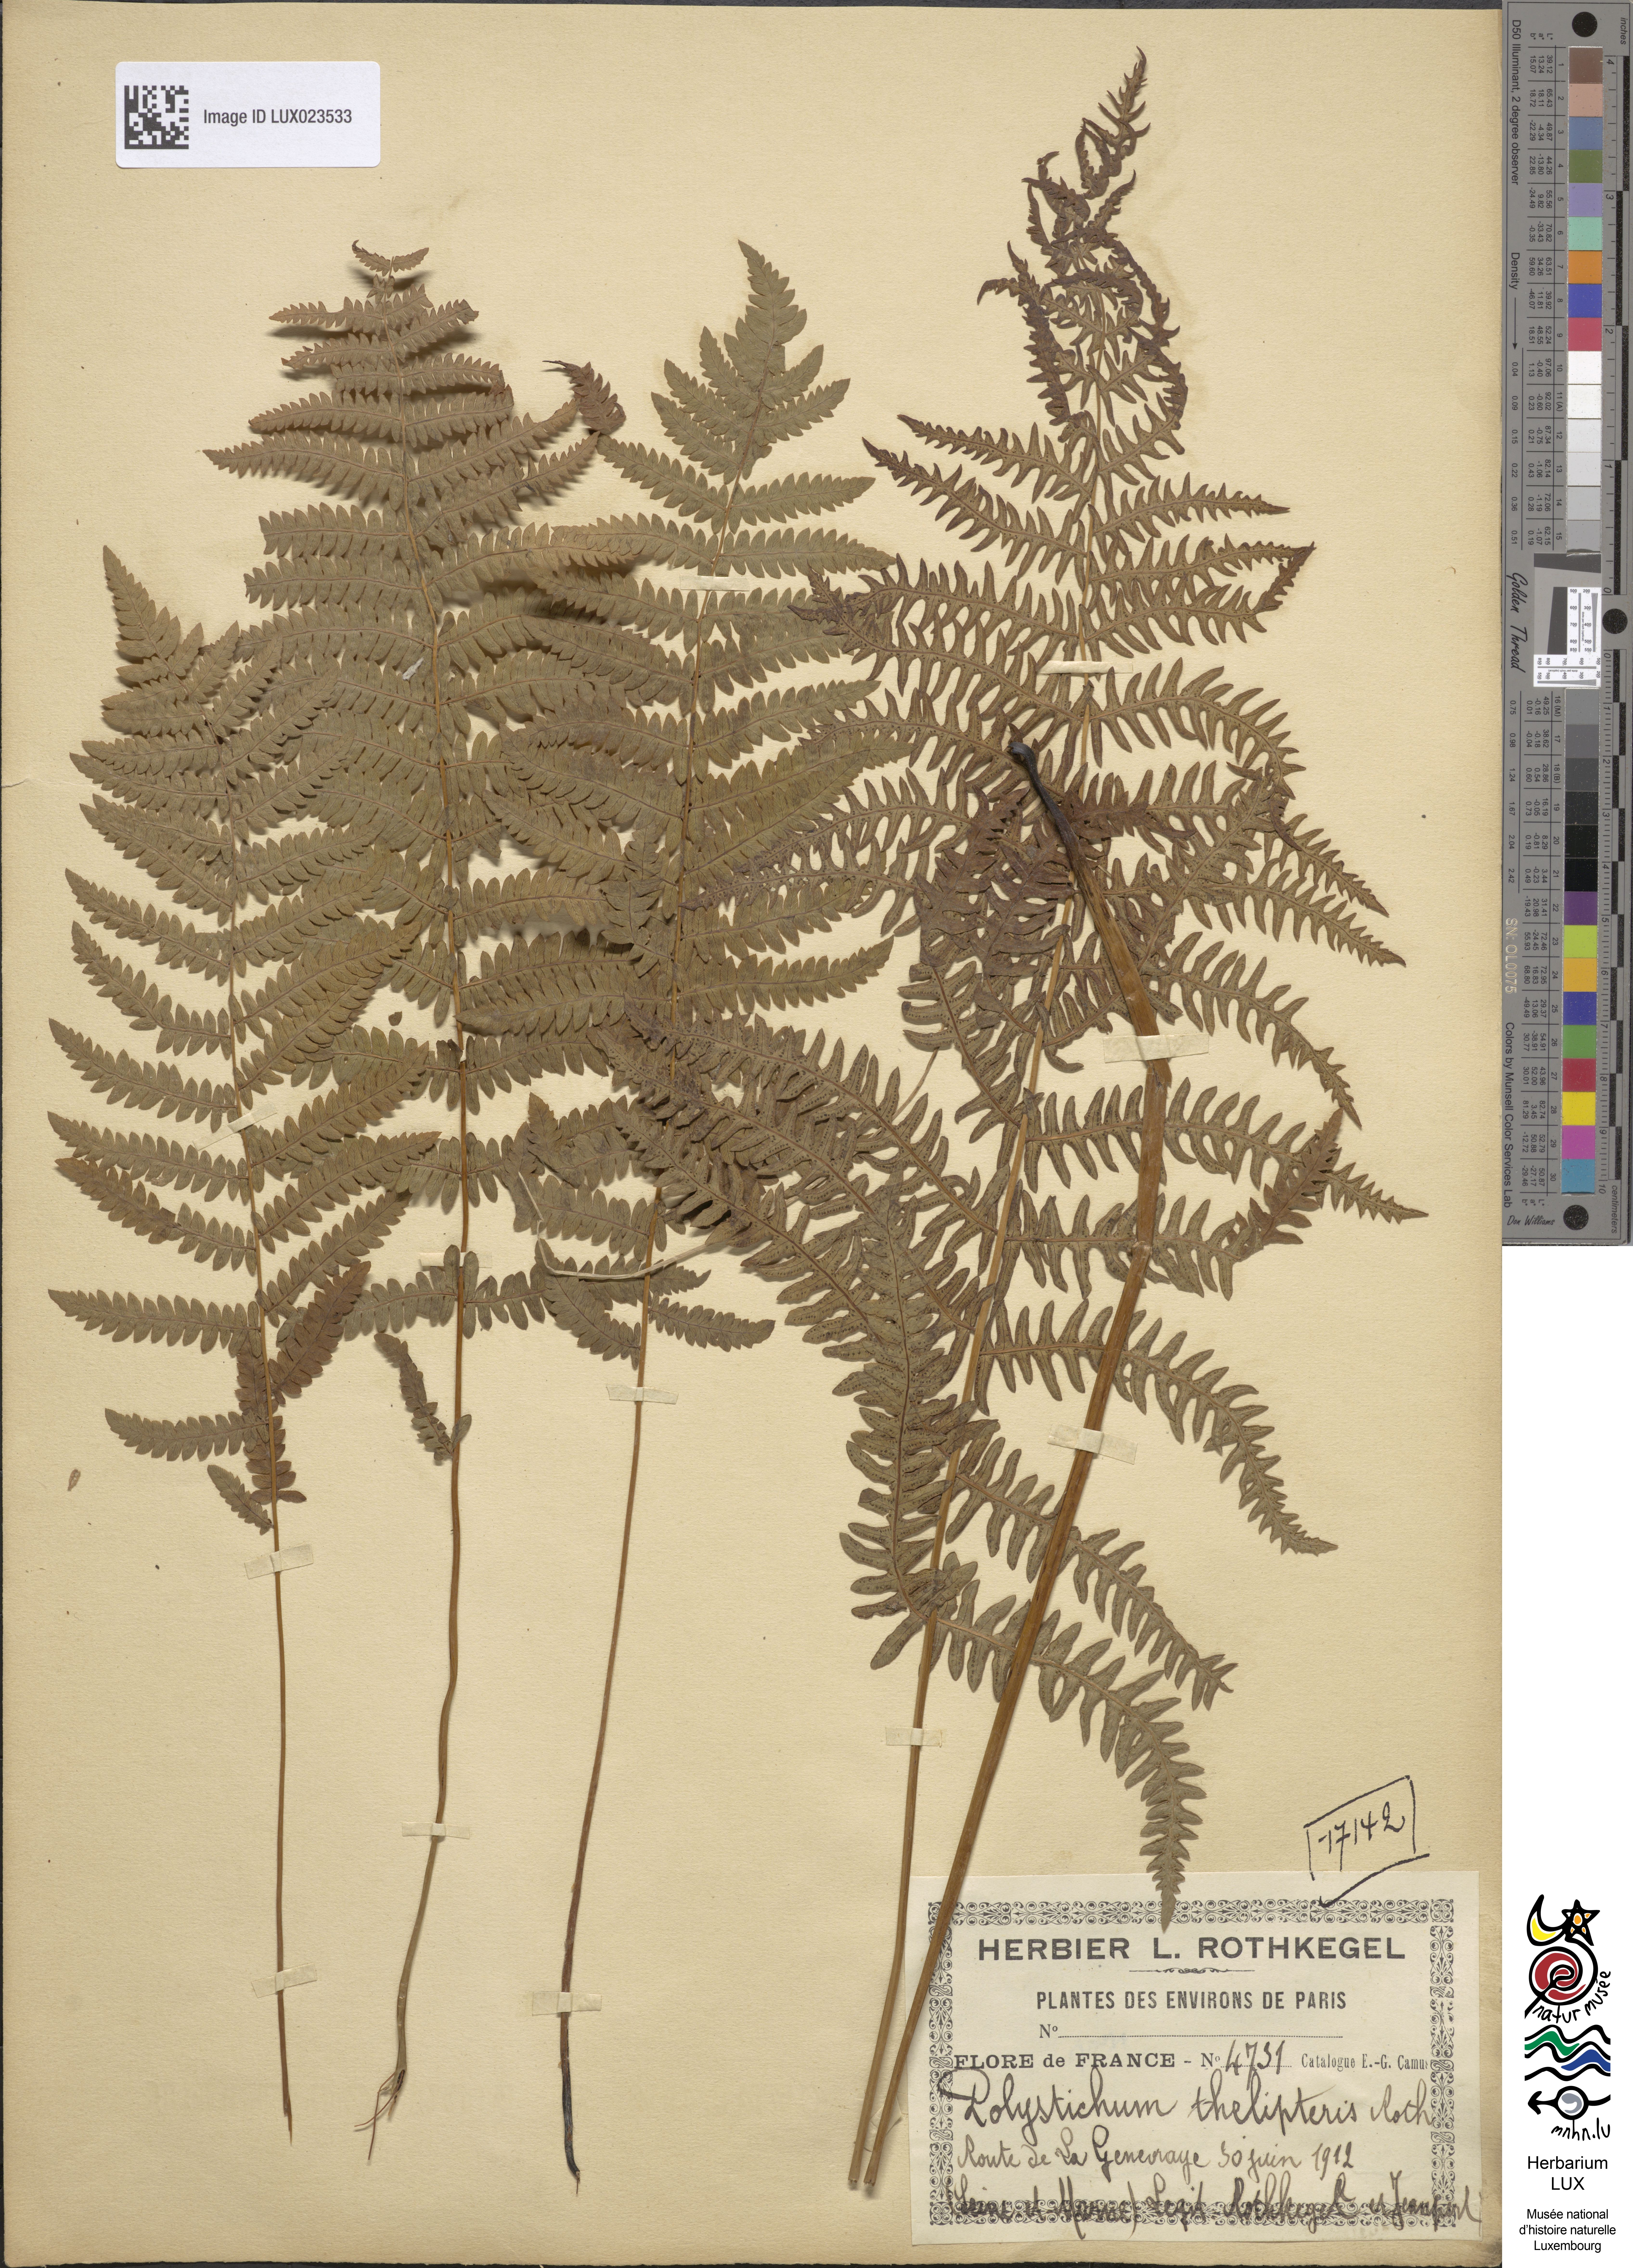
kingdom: Plantae
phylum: Tracheophyta
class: Polypodiopsida
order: Polypodiales
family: Thelypteridaceae
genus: Thelypteris
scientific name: Thelypteris palustris
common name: Marsh fern
